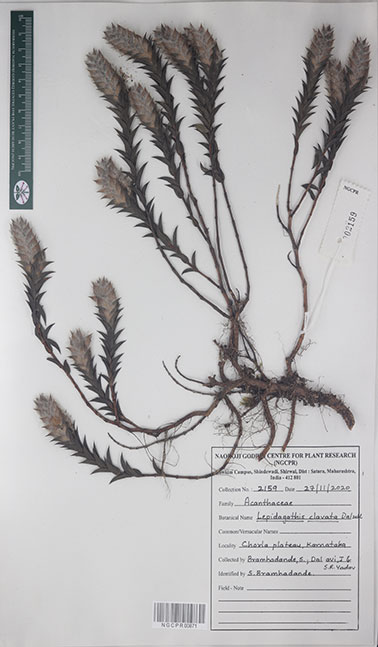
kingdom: Plantae
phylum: Tracheophyta
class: Magnoliopsida
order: Lamiales
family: Acanthaceae
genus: Lepidagathis
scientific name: Lepidagathis clavata
